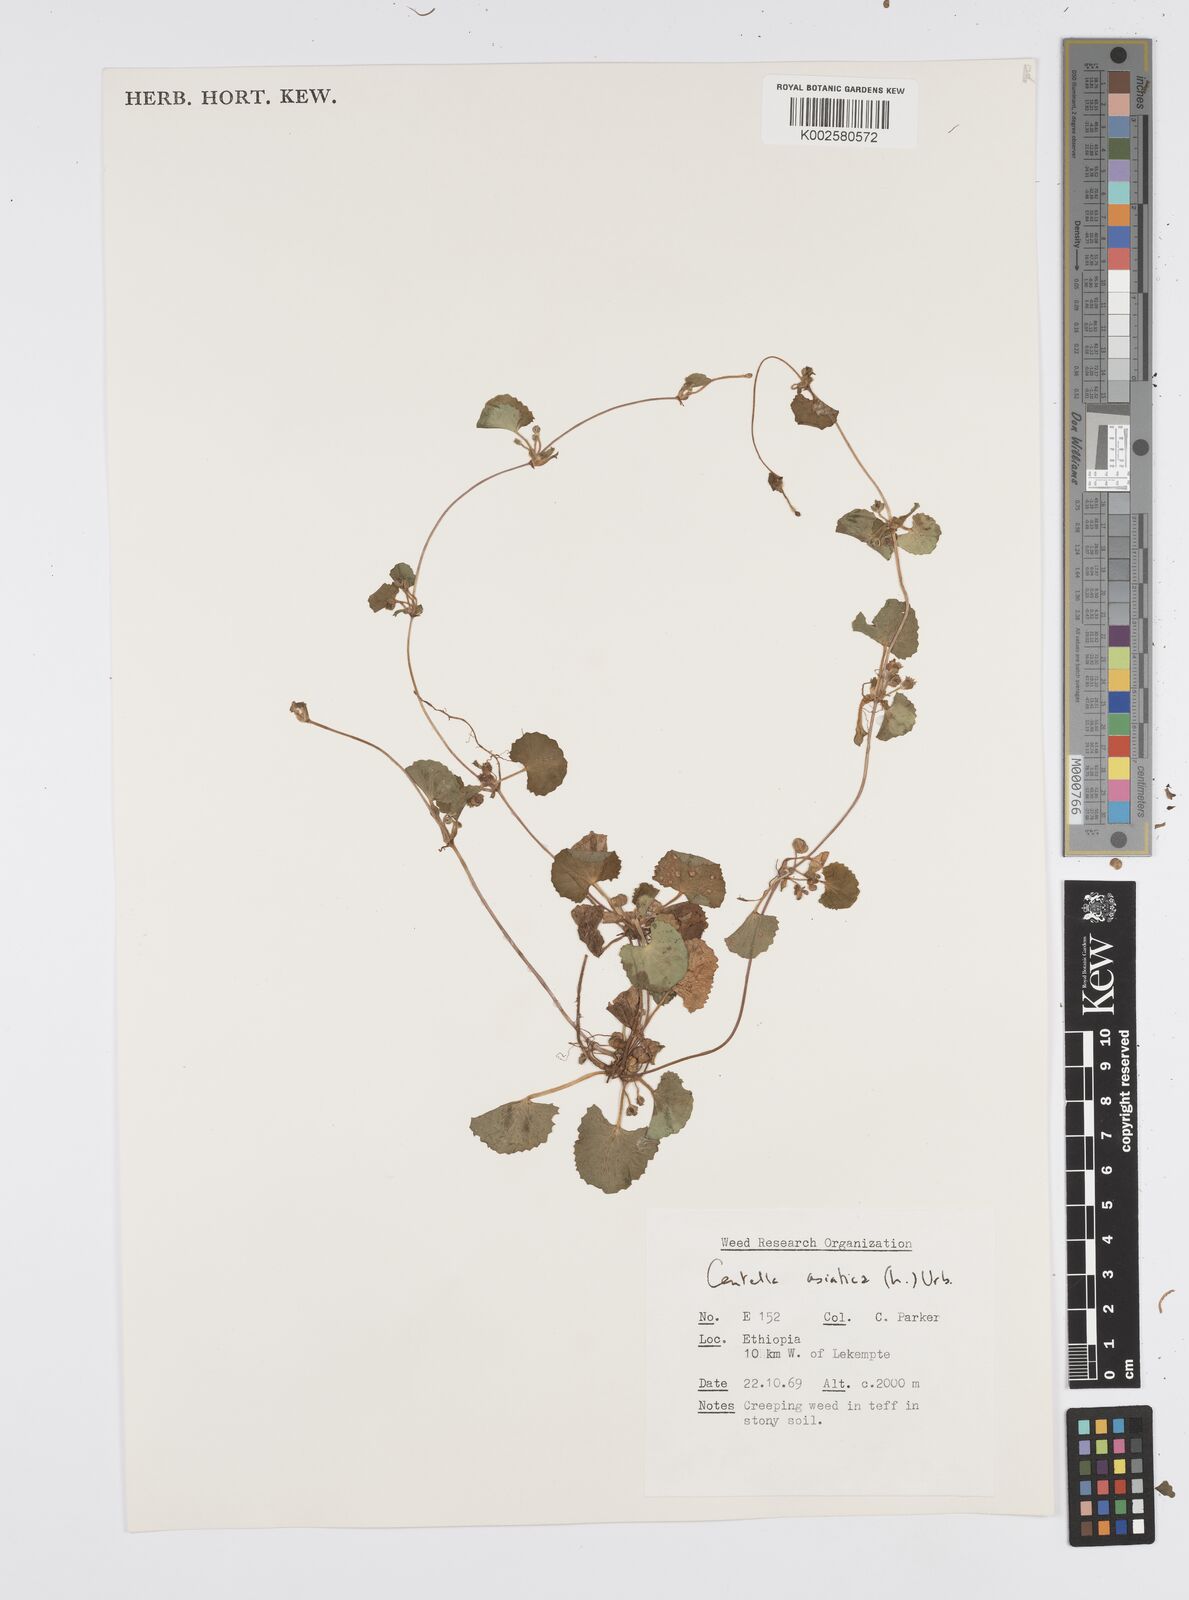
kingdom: Plantae
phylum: Tracheophyta
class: Magnoliopsida
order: Apiales
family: Apiaceae
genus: Centella
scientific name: Centella asiatica
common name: Spadeleaf
